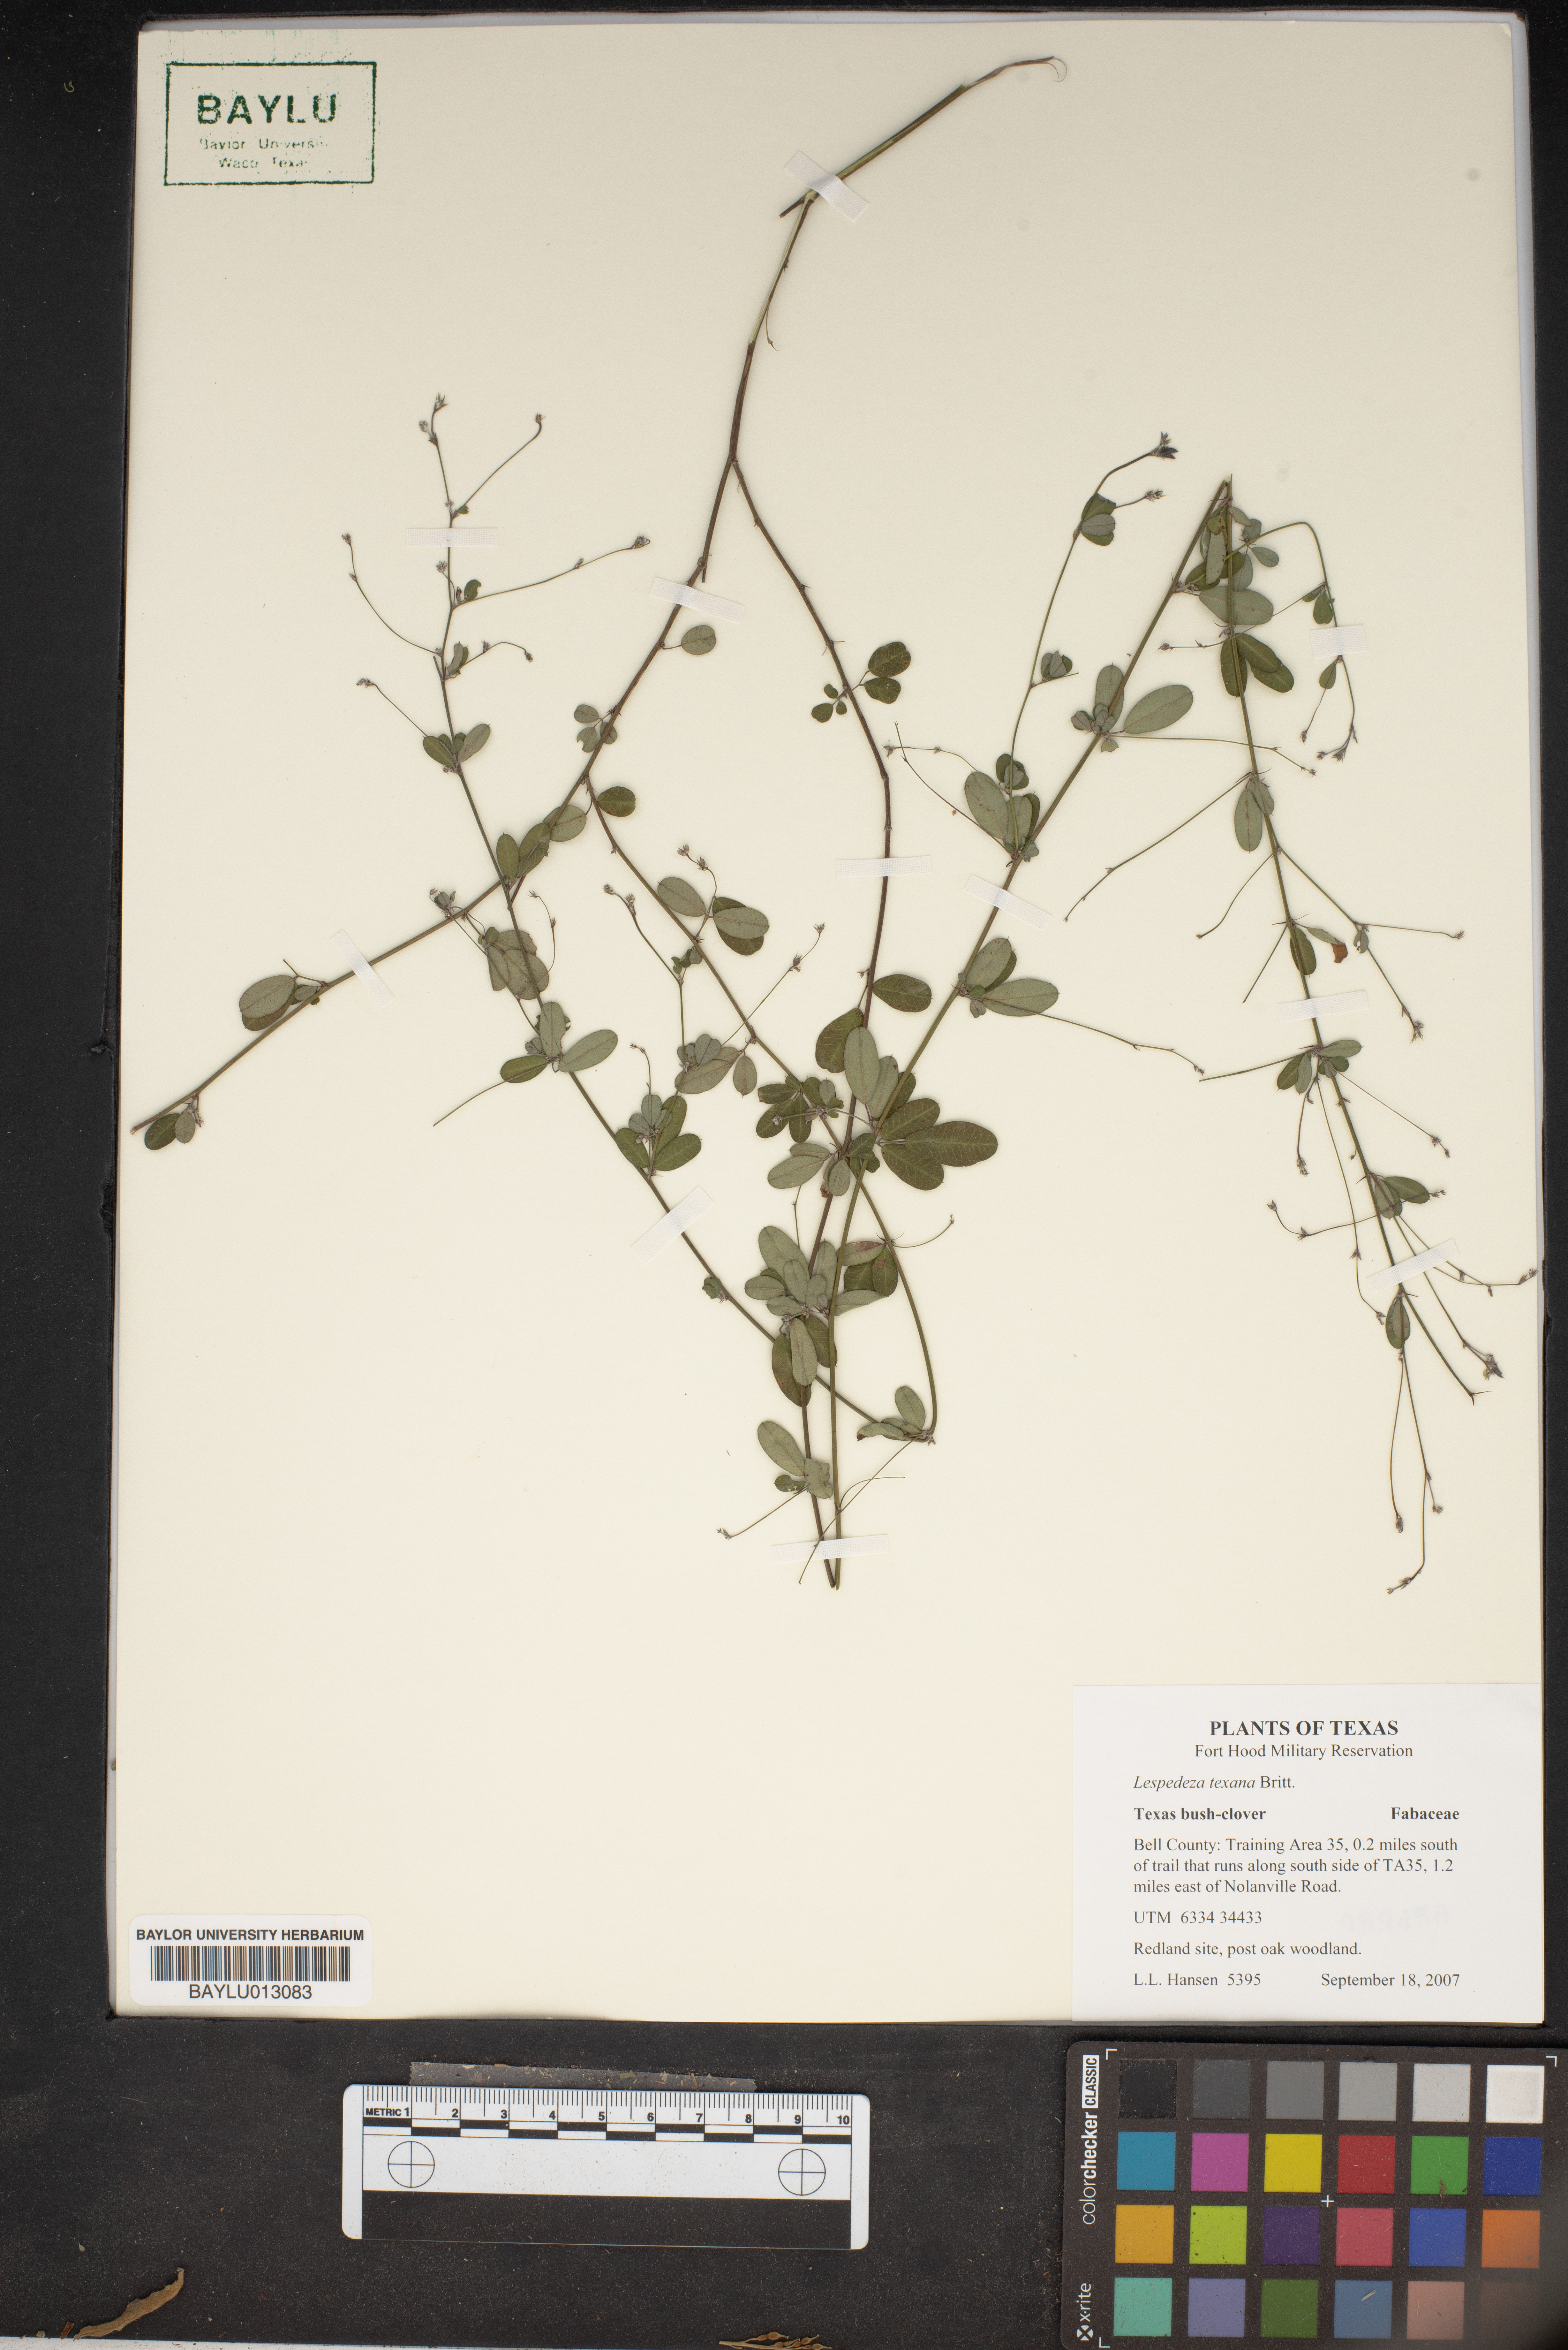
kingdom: Plantae
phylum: Tracheophyta
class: Magnoliopsida
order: Fabales
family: Fabaceae
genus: Lespedeza
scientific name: Lespedeza texana
